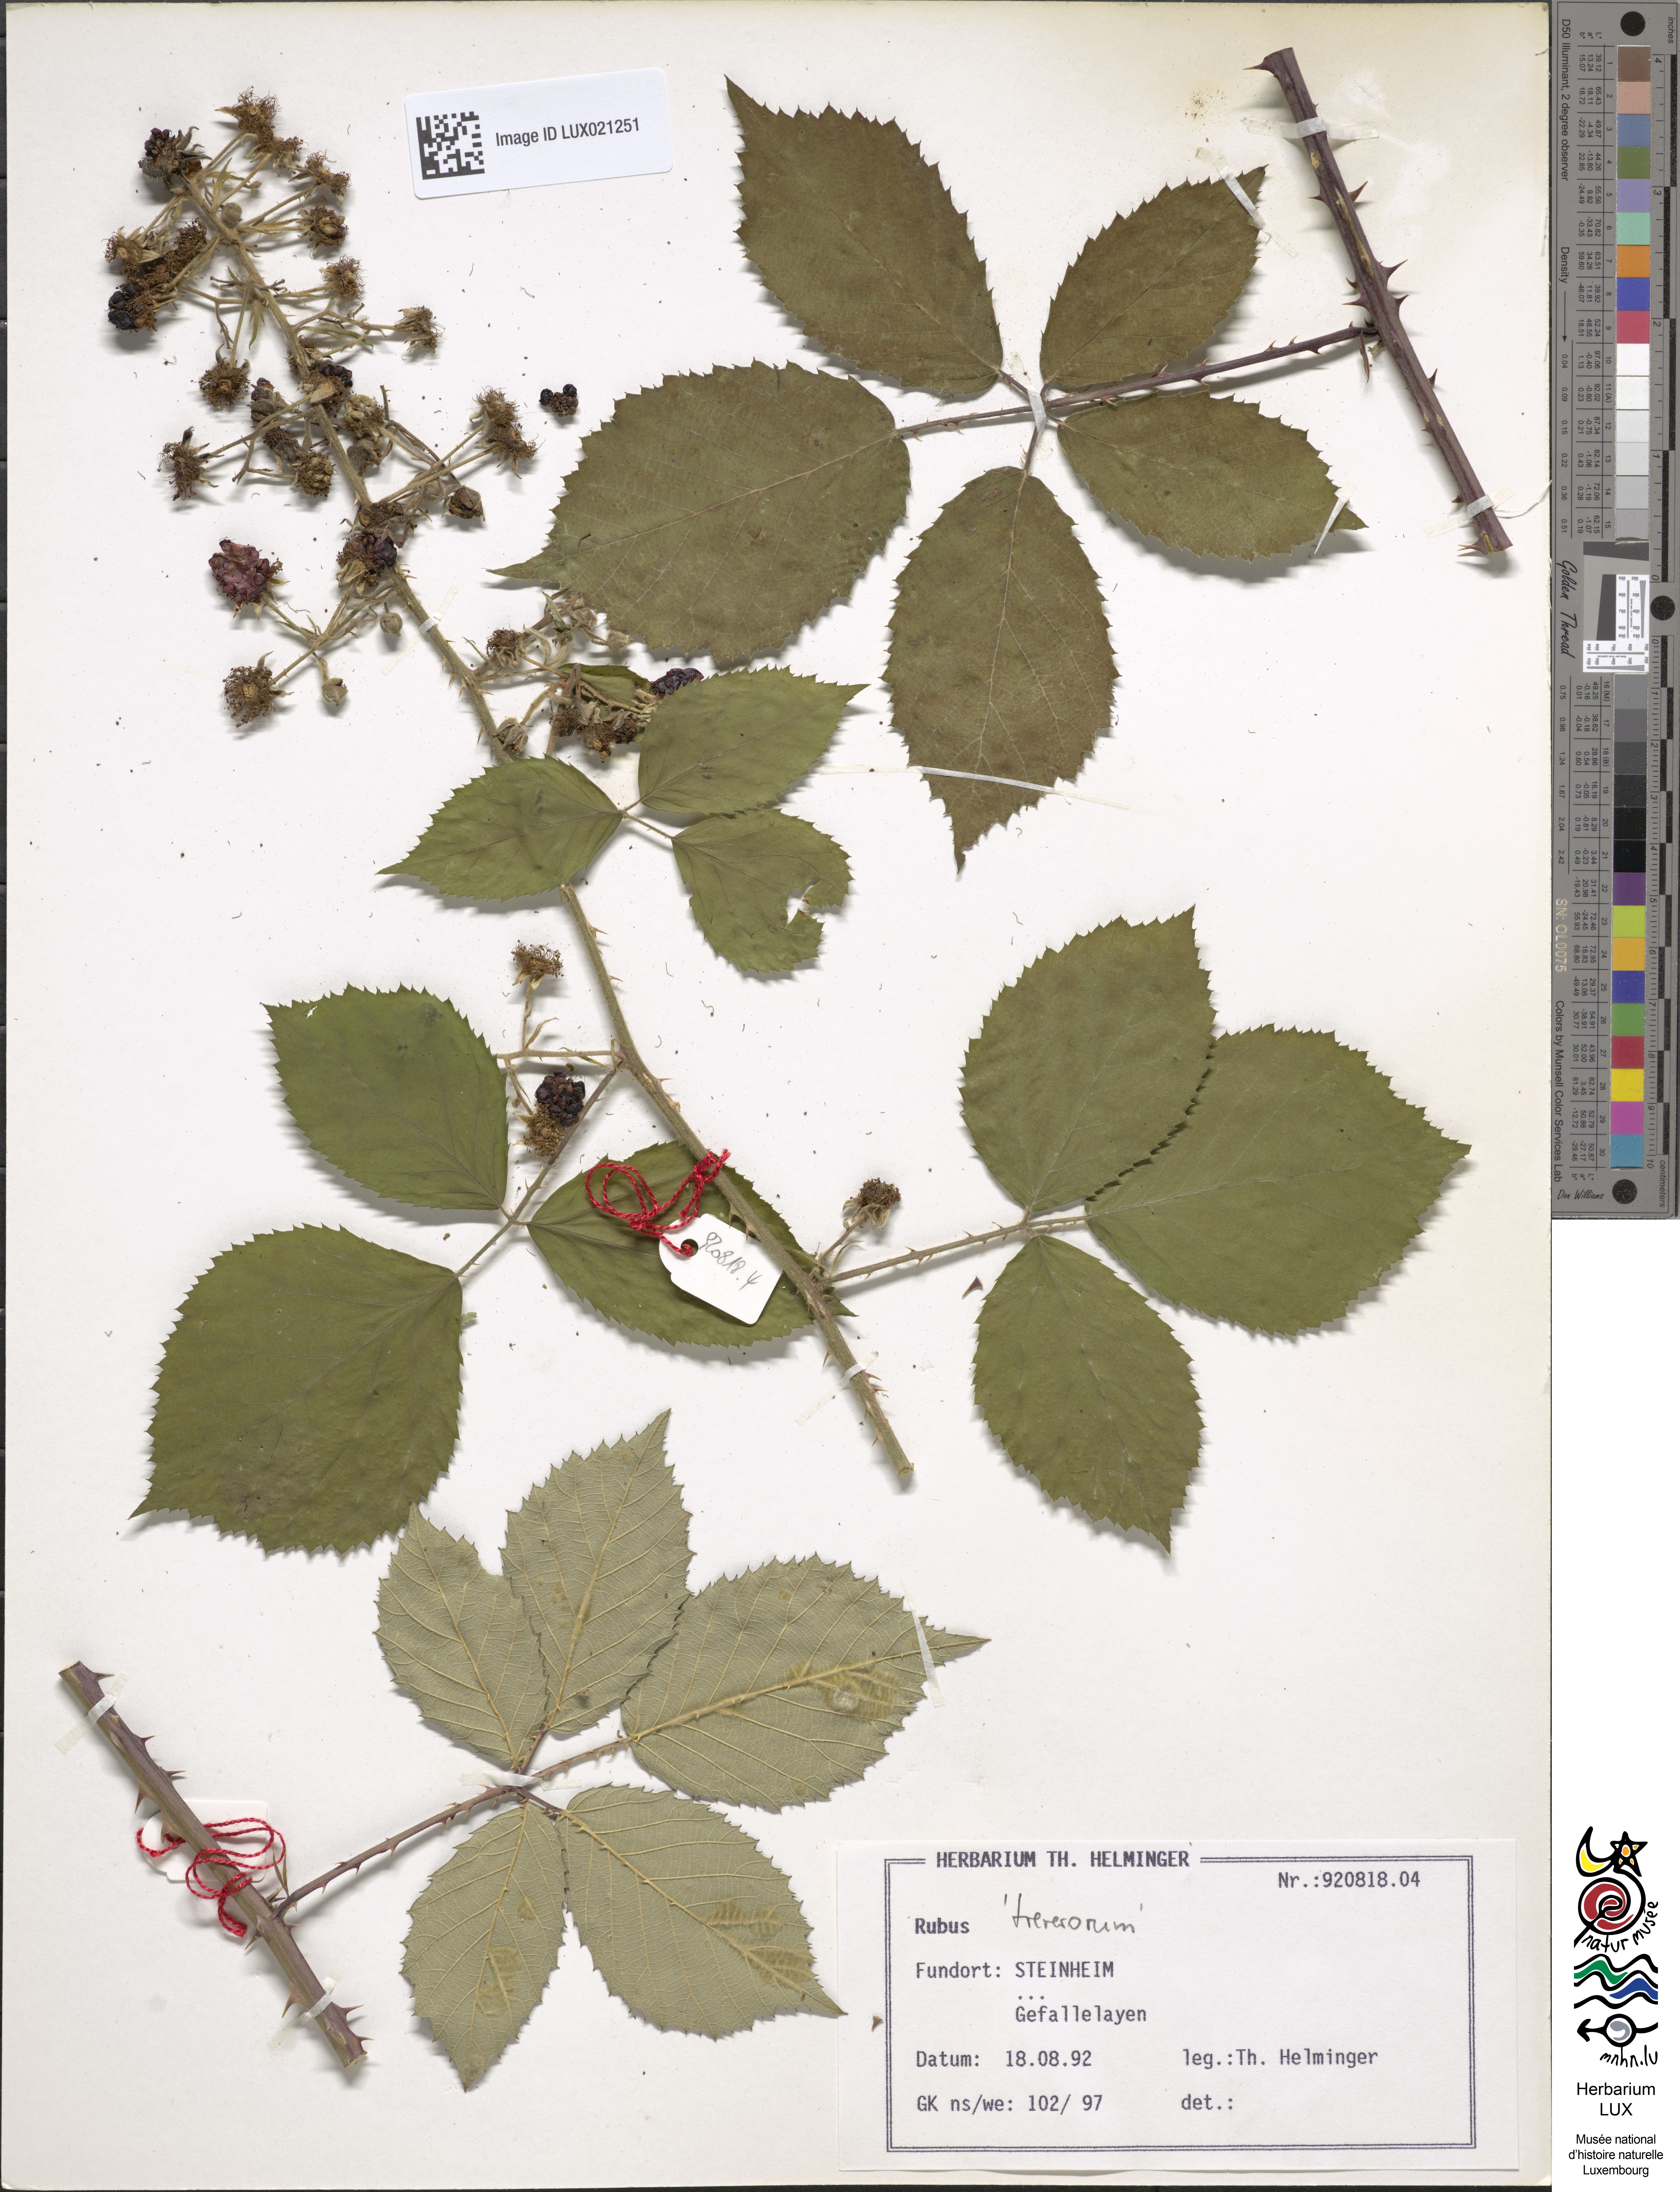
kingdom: Plantae
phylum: Tracheophyta
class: Magnoliopsida
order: Rosales
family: Rosaceae
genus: Rubus
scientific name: Rubus
